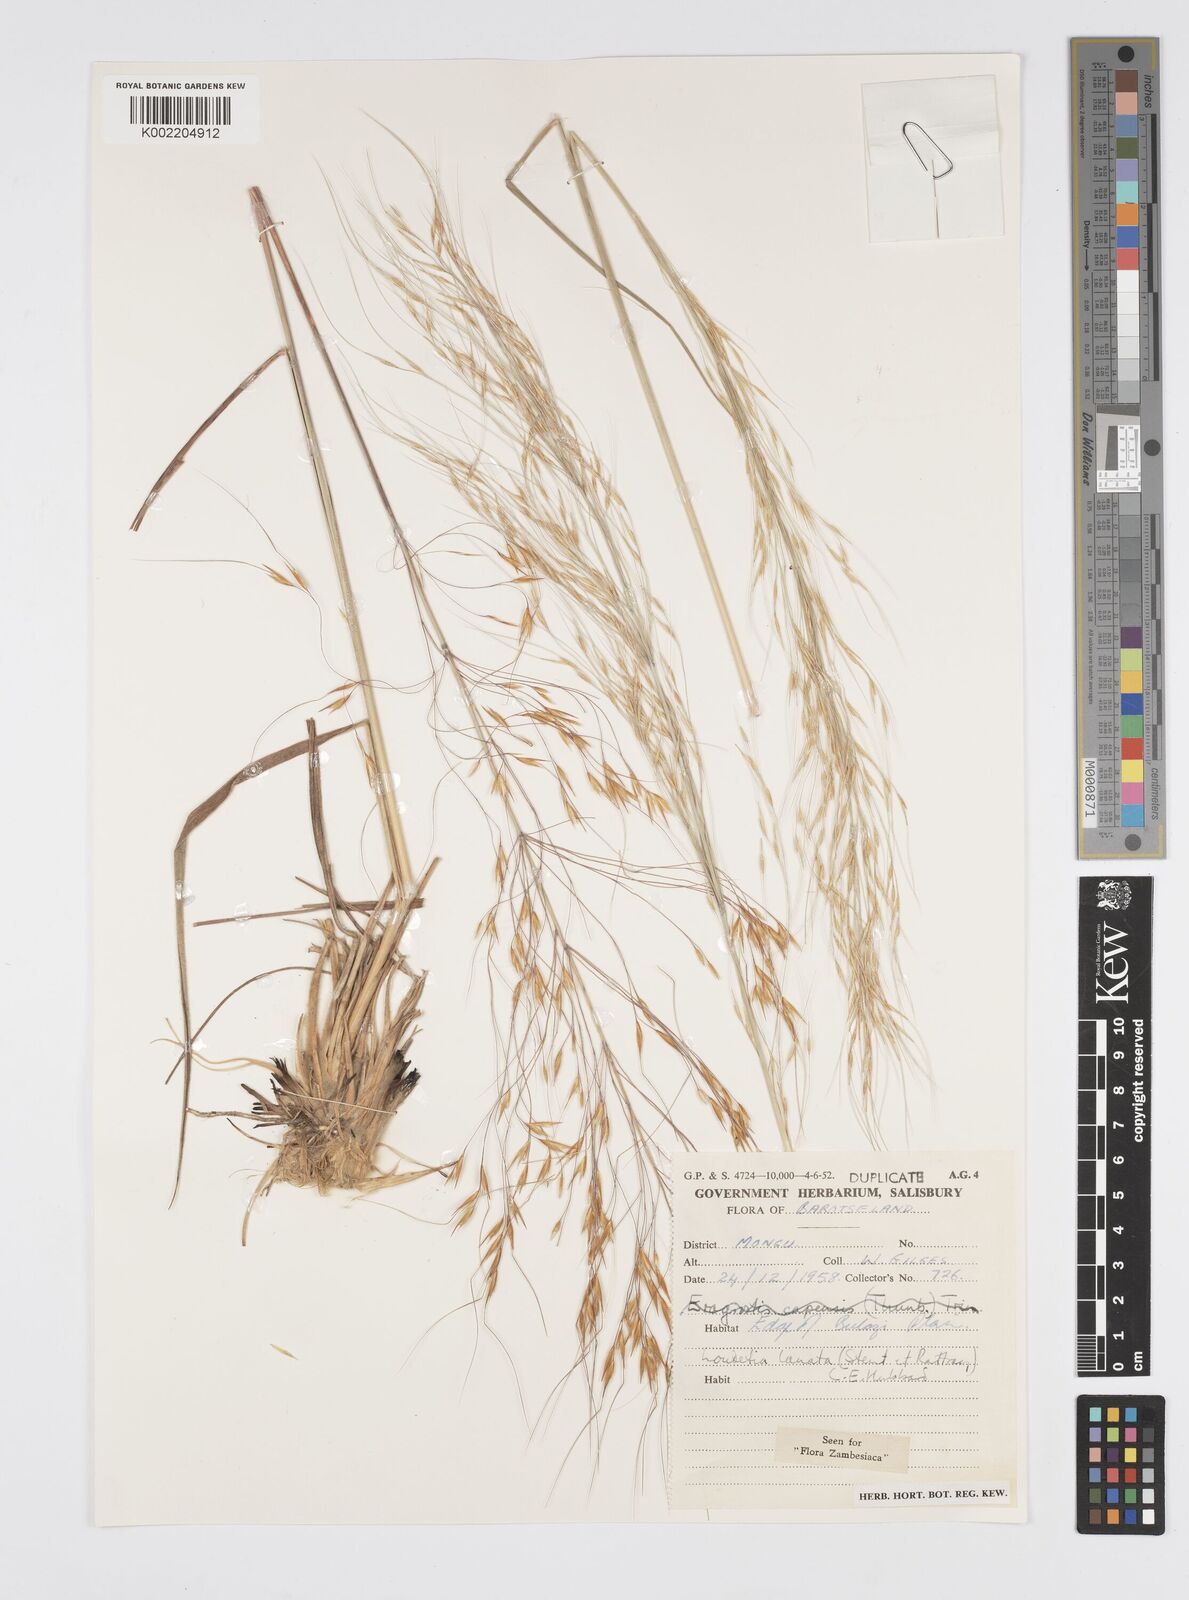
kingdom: Plantae
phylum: Tracheophyta
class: Liliopsida
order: Poales
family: Poaceae
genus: Loudetia
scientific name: Loudetia lanata
